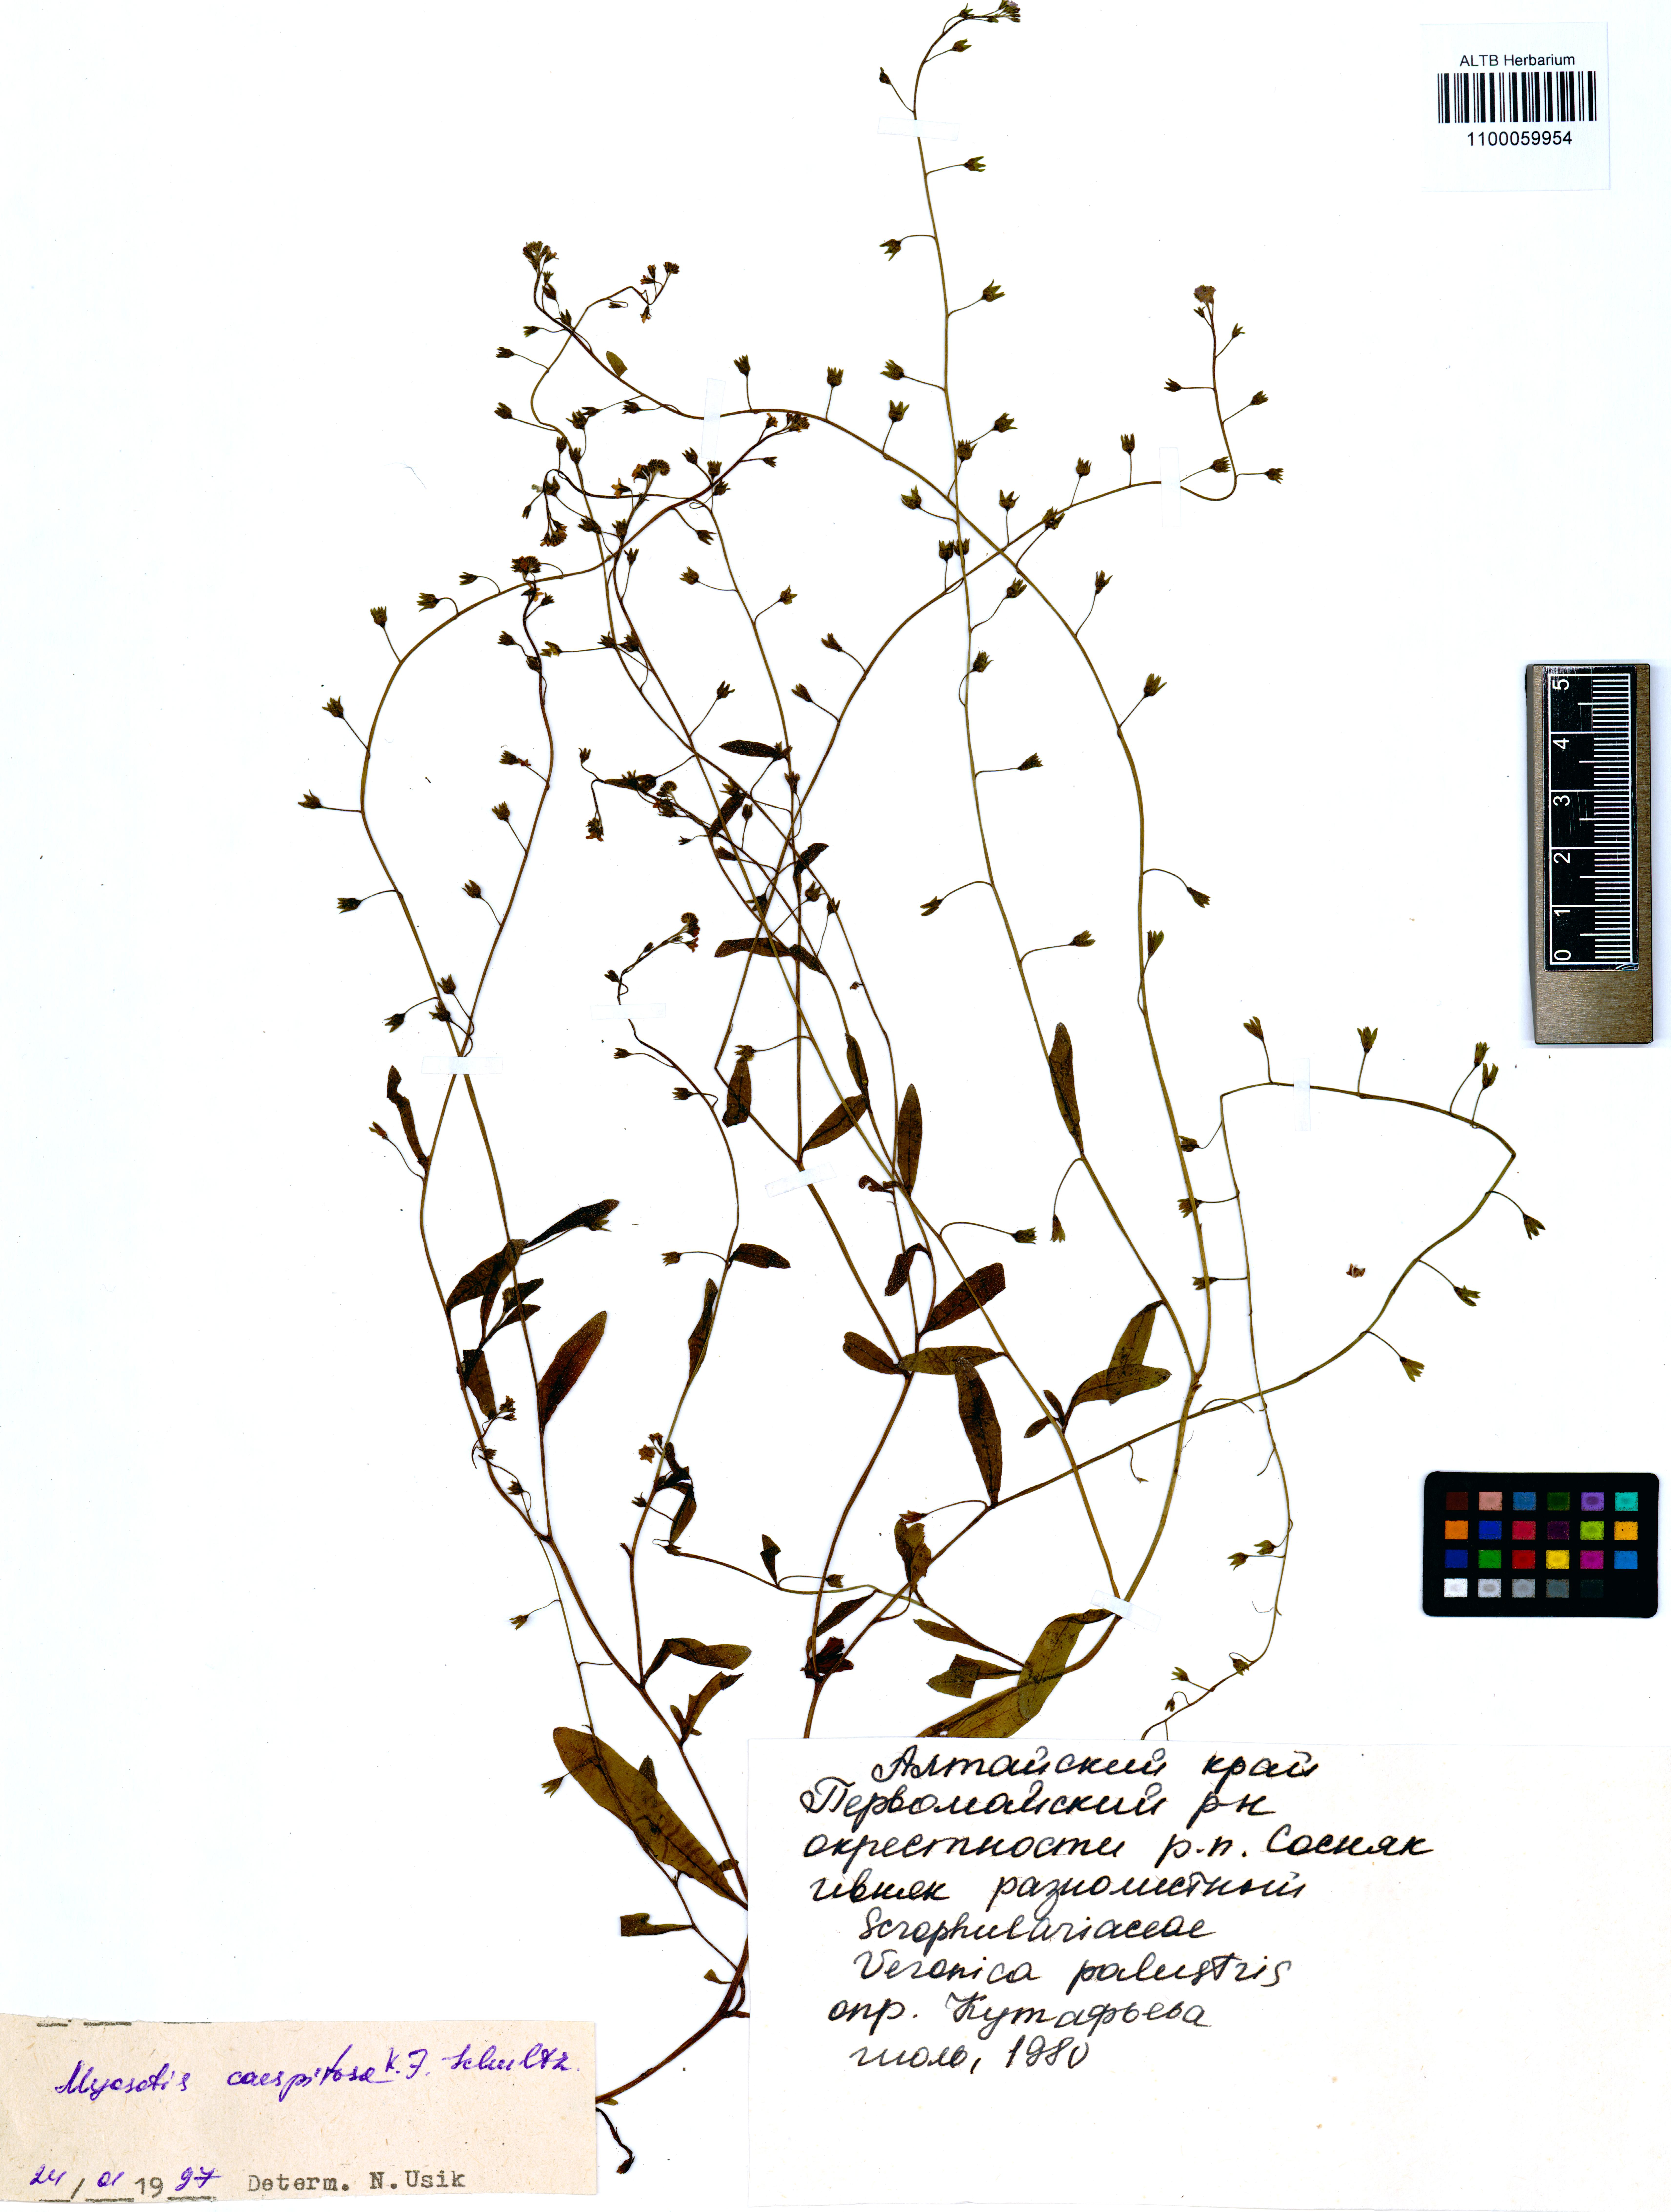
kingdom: Plantae
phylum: Tracheophyta
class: Magnoliopsida
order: Boraginales
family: Boraginaceae
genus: Myosotis
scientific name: Myosotis laxa
